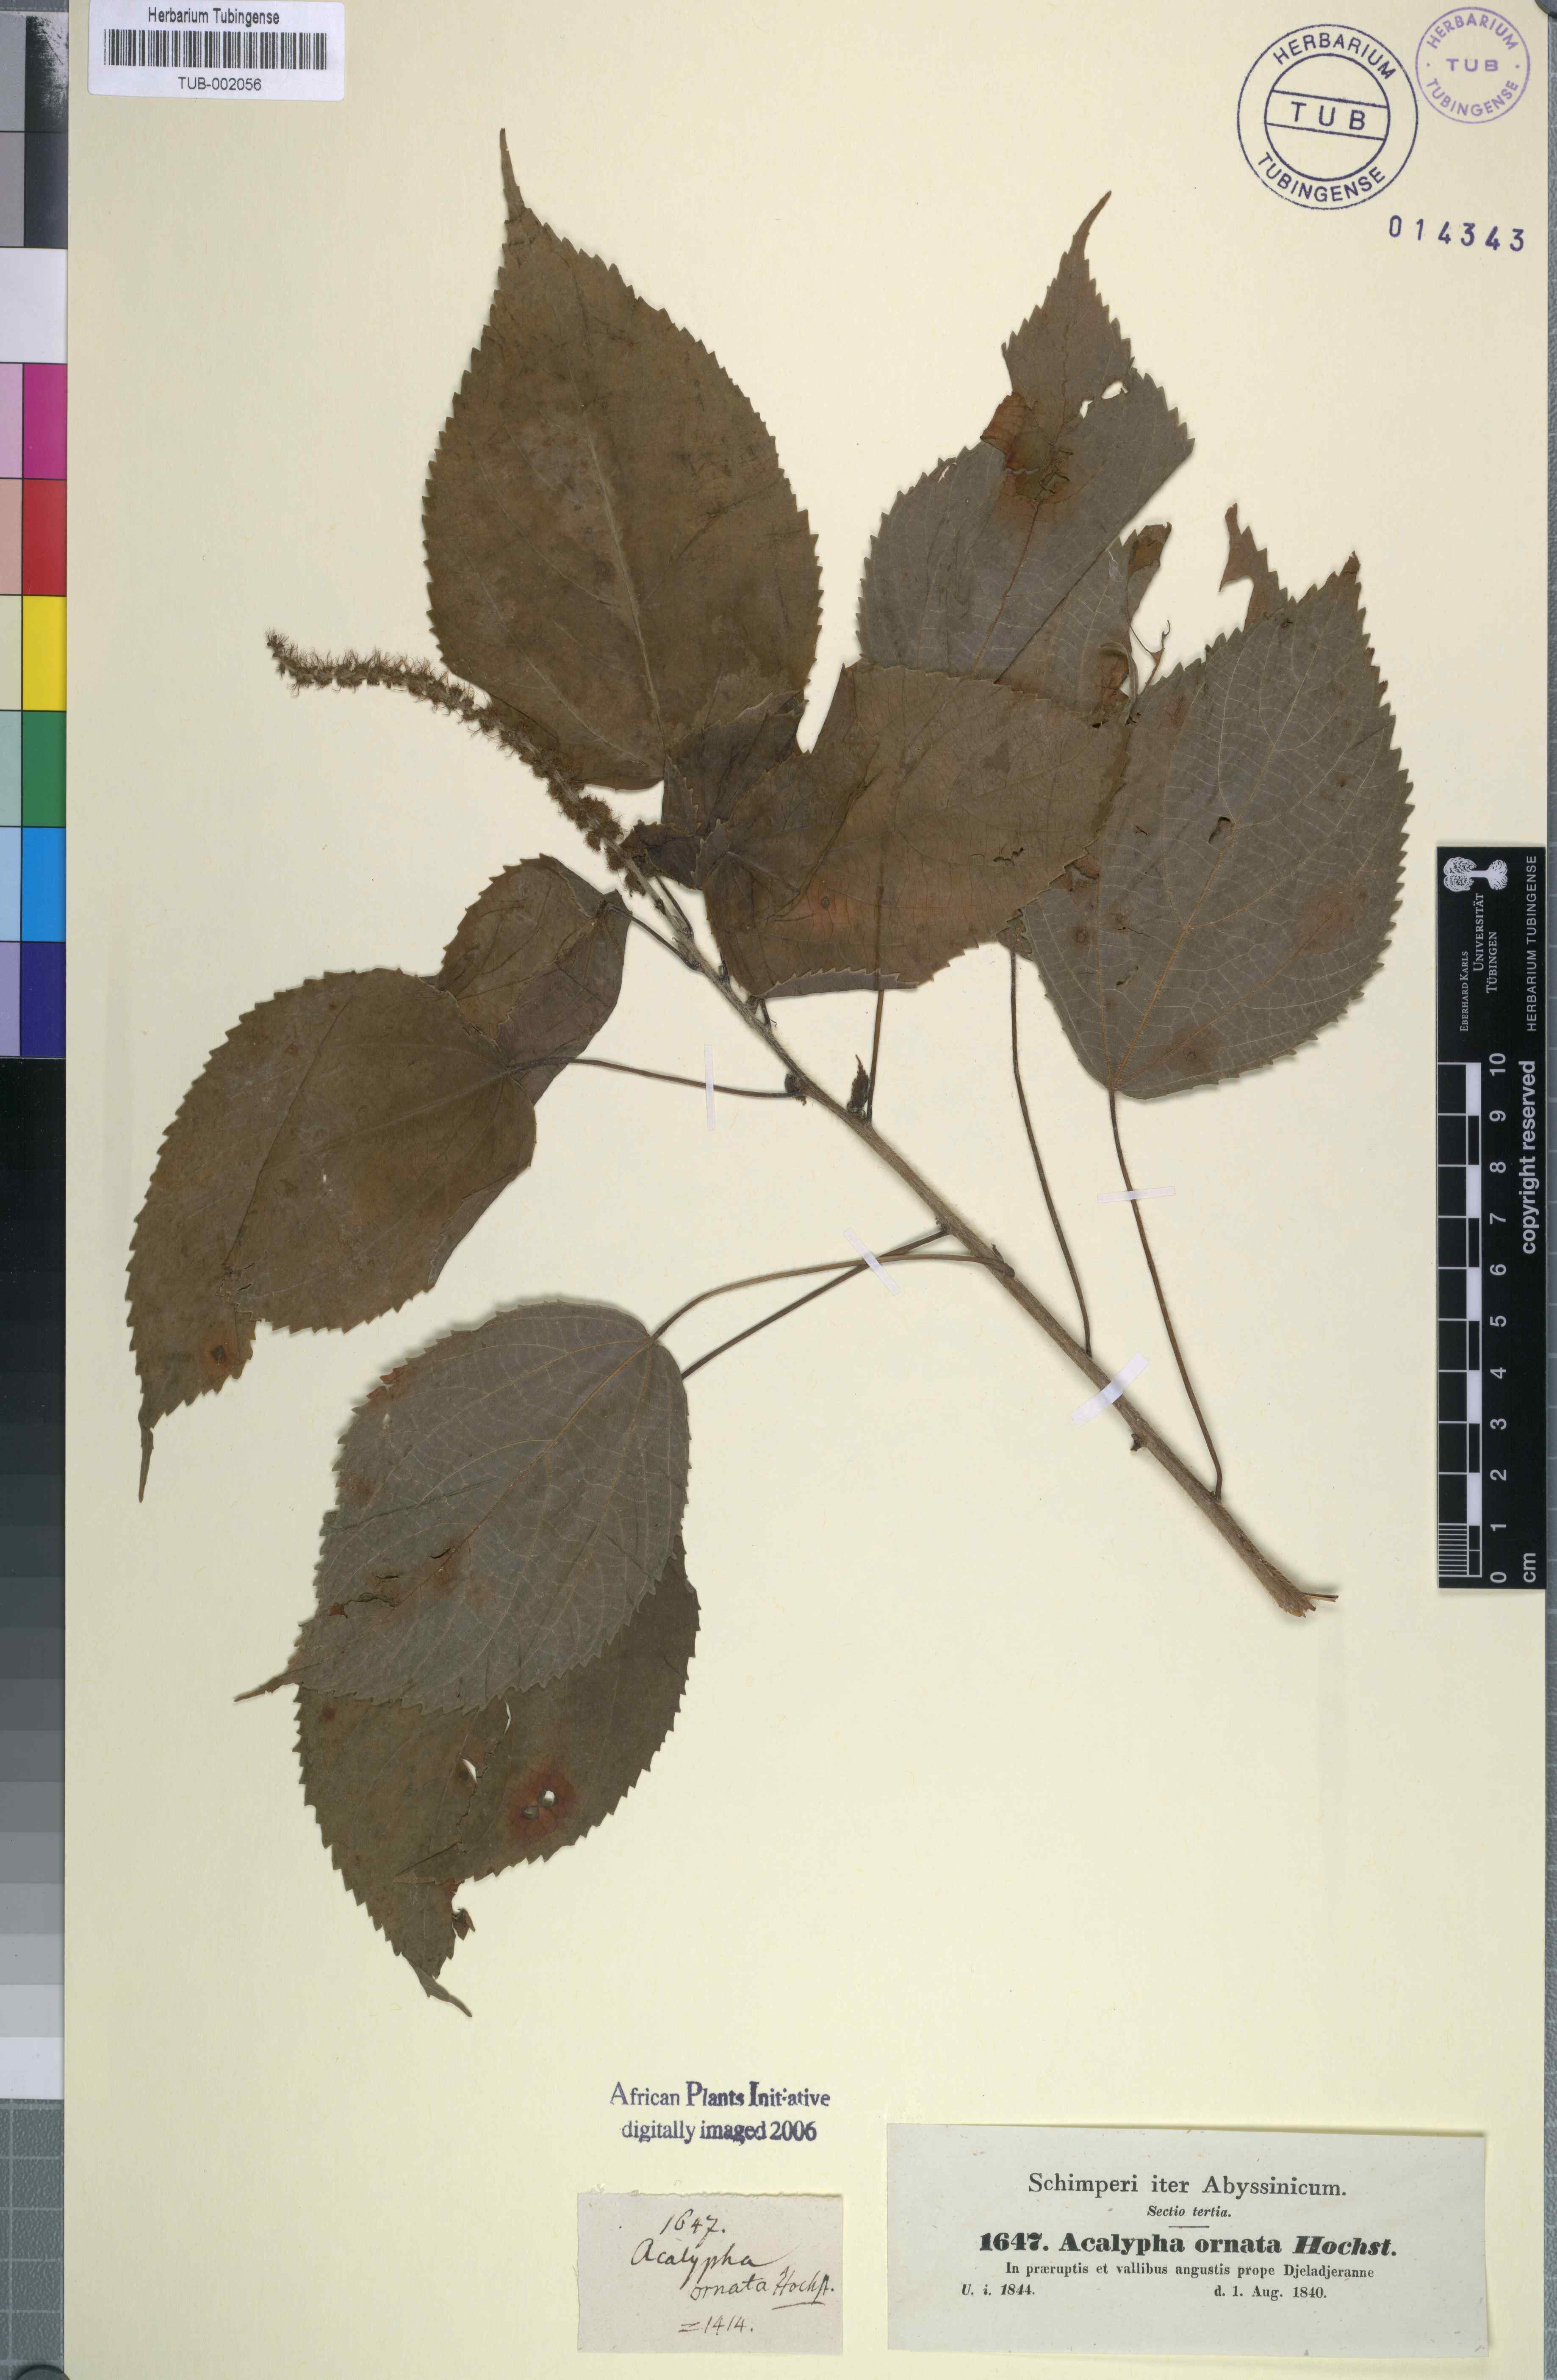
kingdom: Plantae
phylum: Tracheophyta
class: Magnoliopsida
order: Malpighiales
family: Euphorbiaceae
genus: Acalypha
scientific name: Acalypha ornata
